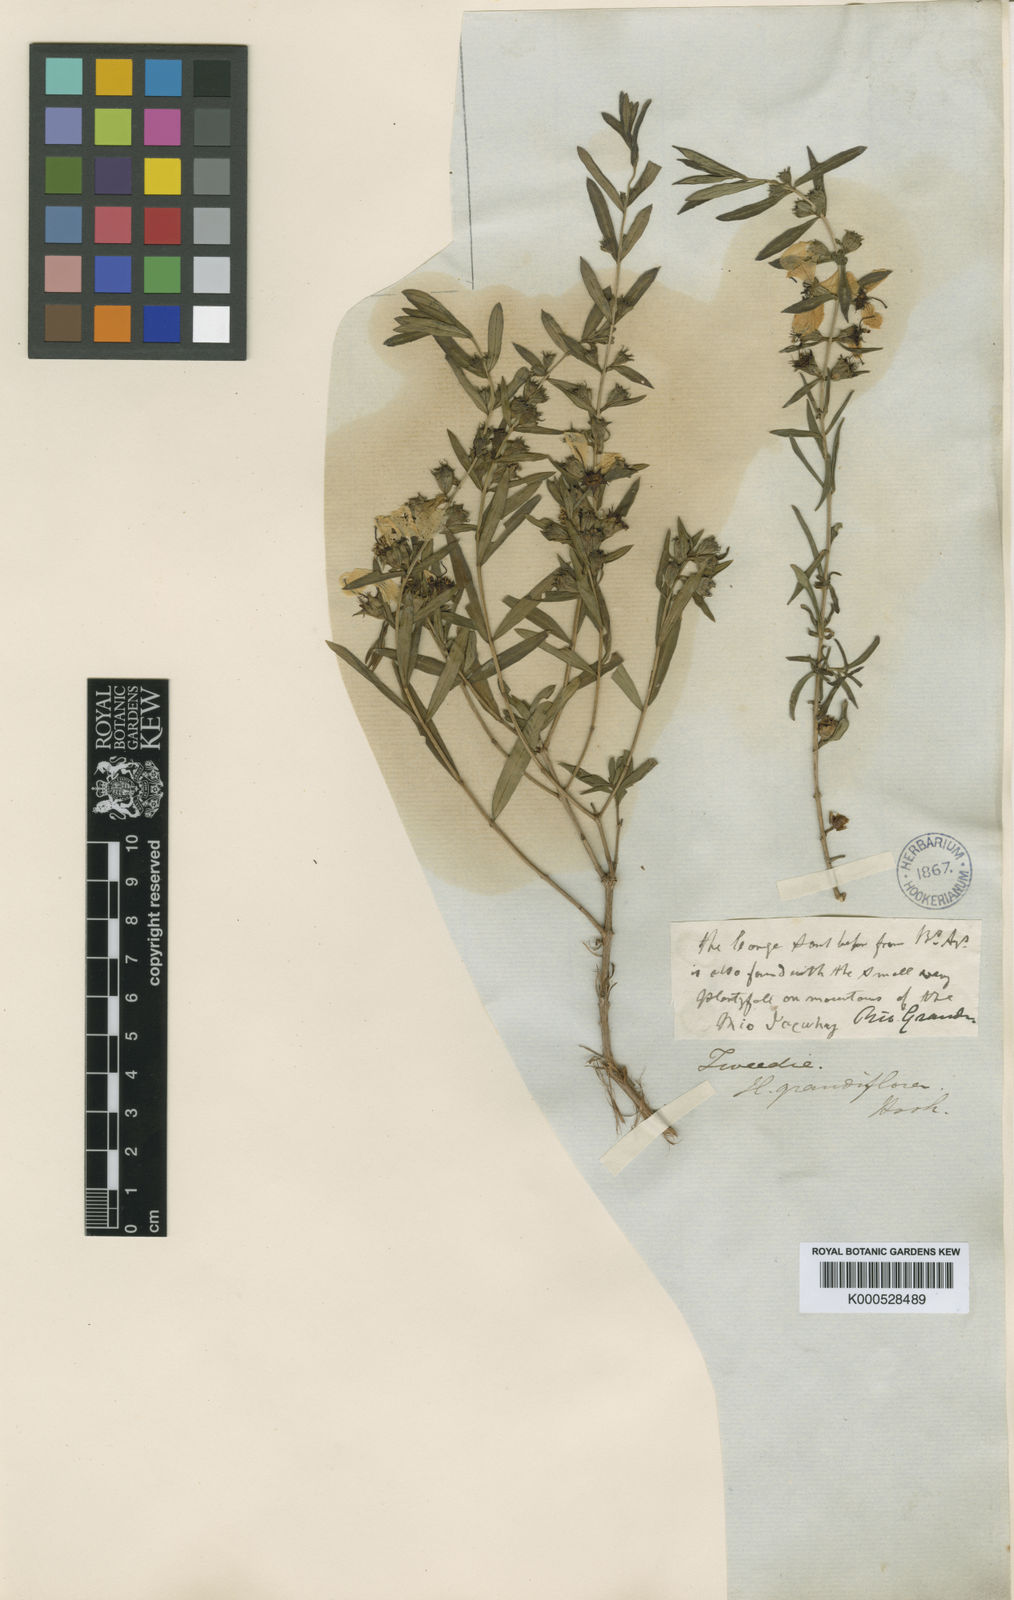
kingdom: Plantae
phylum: Tracheophyta
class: Magnoliopsida
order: Myrtales
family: Lythraceae
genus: Heimia
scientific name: Heimia salicifolia
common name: Willow-leaf heimia
